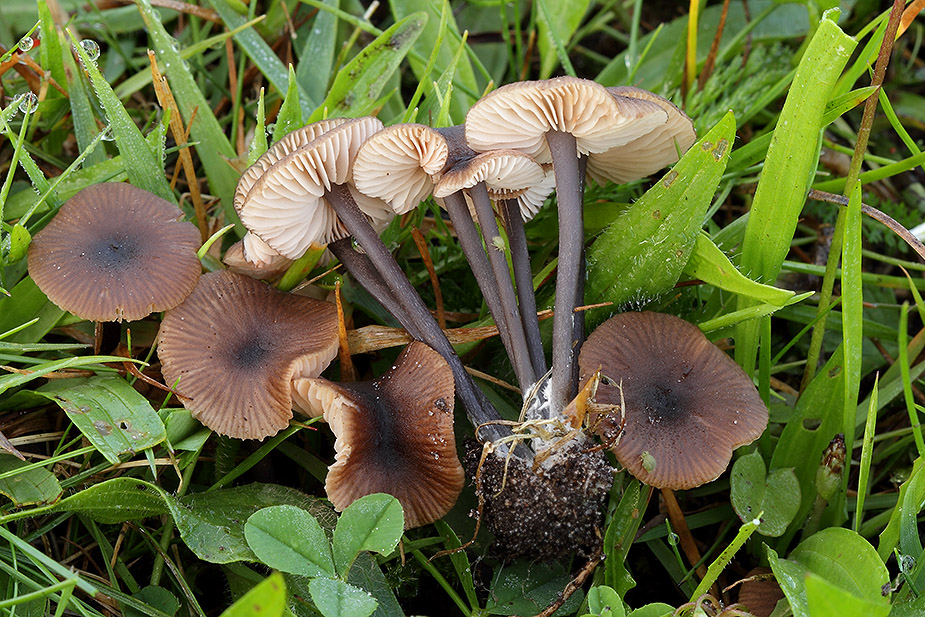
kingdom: Fungi
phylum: Basidiomycota
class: Agaricomycetes
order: Agaricales
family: Entolomataceae
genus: Entoloma
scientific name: Entoloma asprellum
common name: ru rødblad
